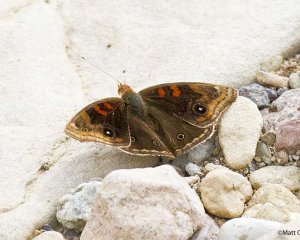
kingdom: Animalia
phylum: Arthropoda
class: Insecta
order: Lepidoptera
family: Nymphalidae
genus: Junonia
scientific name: Junonia lavinia
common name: Tropical Buckeye
